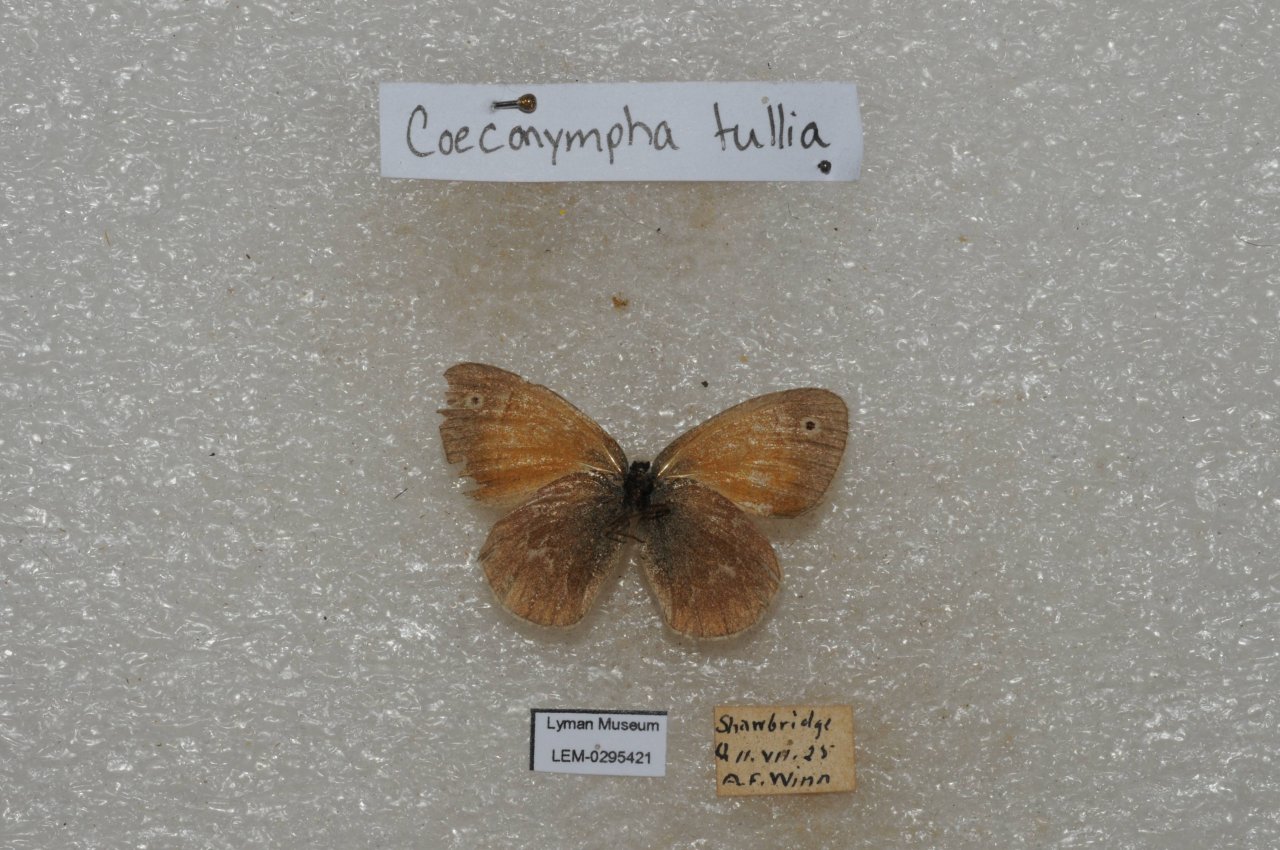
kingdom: Animalia
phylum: Arthropoda
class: Insecta
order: Lepidoptera
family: Nymphalidae
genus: Coenonympha
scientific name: Coenonympha tullia
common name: Large Heath
